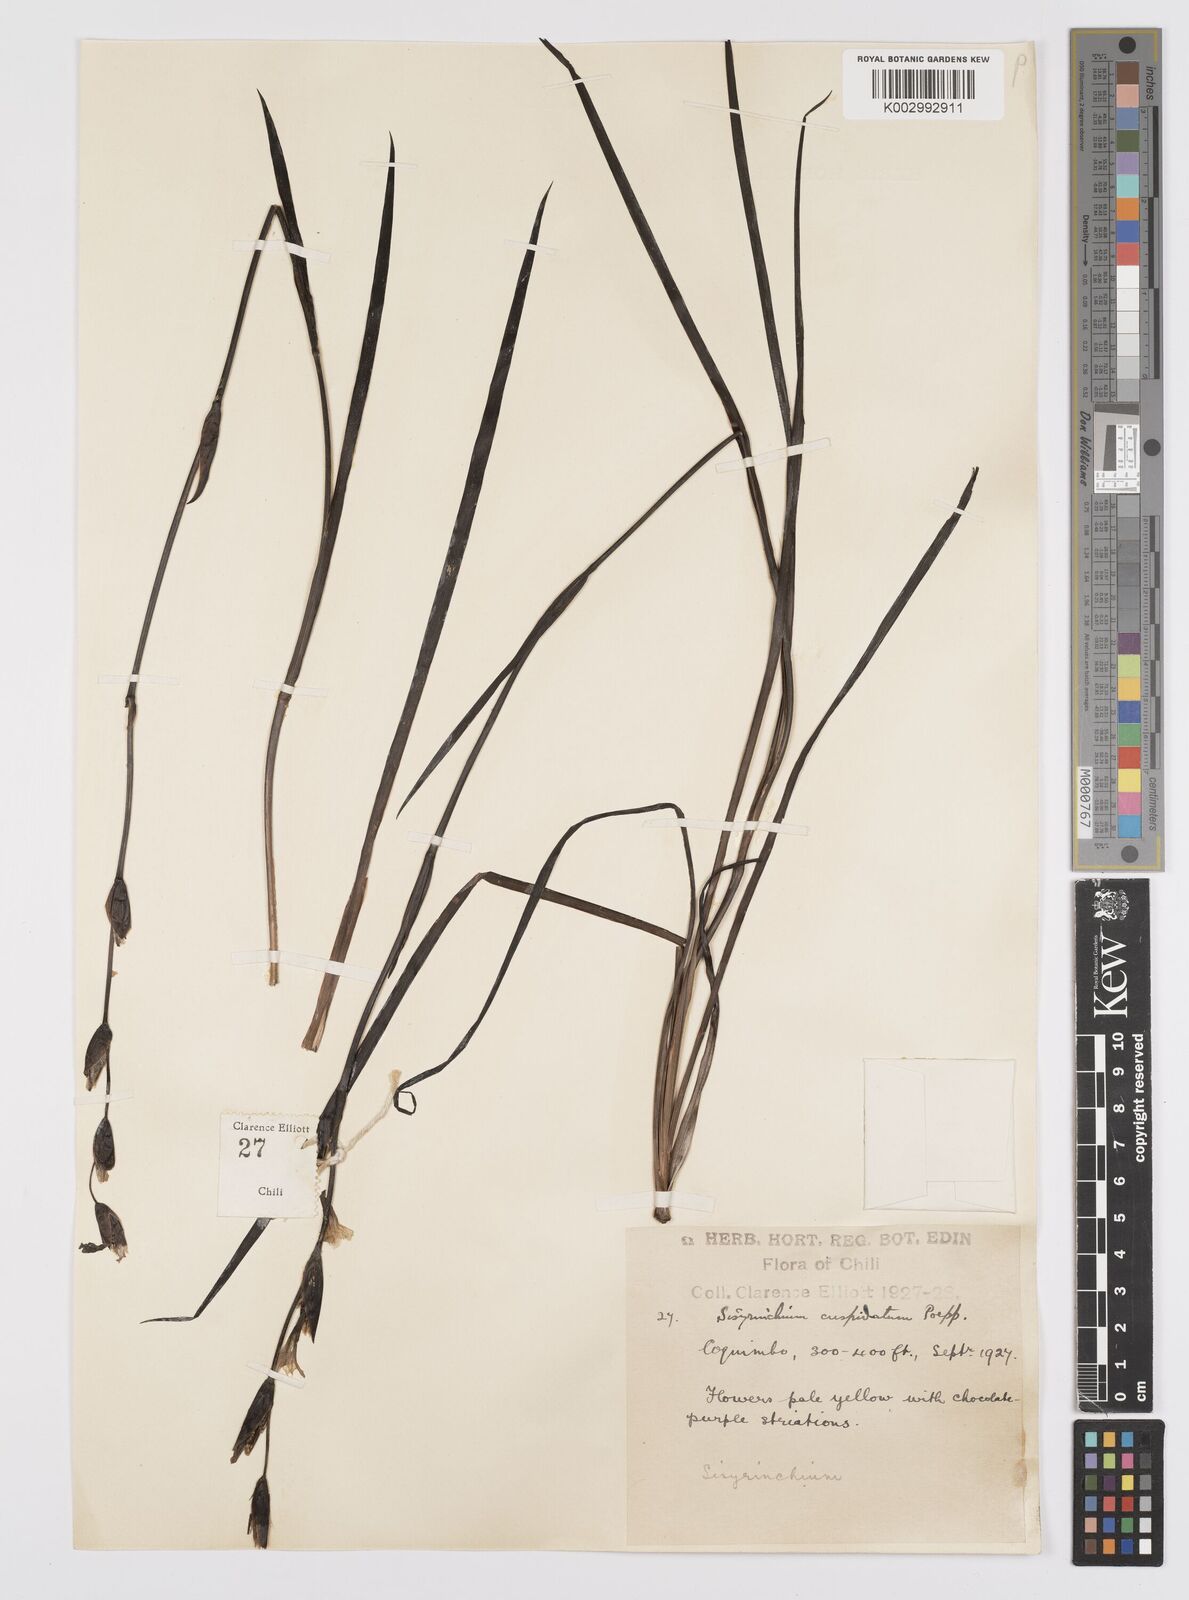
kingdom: Plantae
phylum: Tracheophyta
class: Liliopsida
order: Asparagales
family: Iridaceae
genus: Sisyrinchium
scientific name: Sisyrinchium cuspidatum
